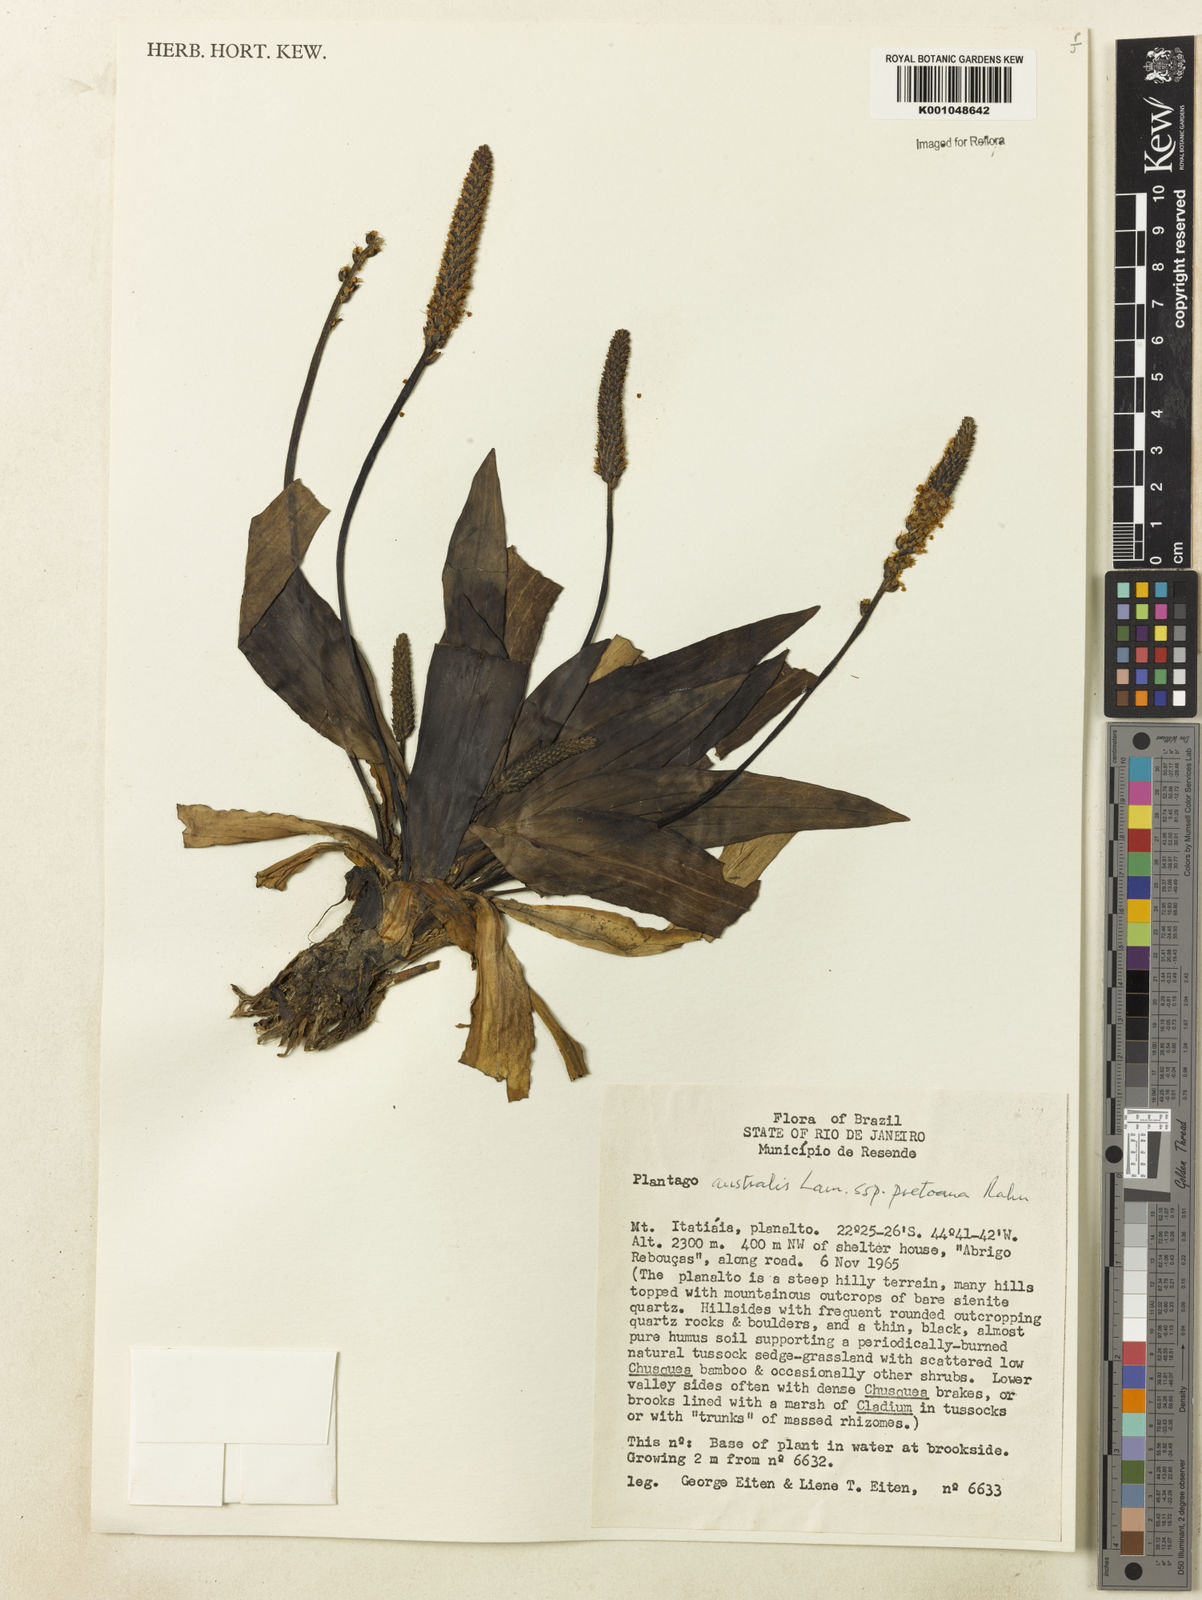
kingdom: Plantae
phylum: Tracheophyta
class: Magnoliopsida
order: Lamiales
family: Plantaginaceae
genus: Plantago
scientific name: Plantago australis
